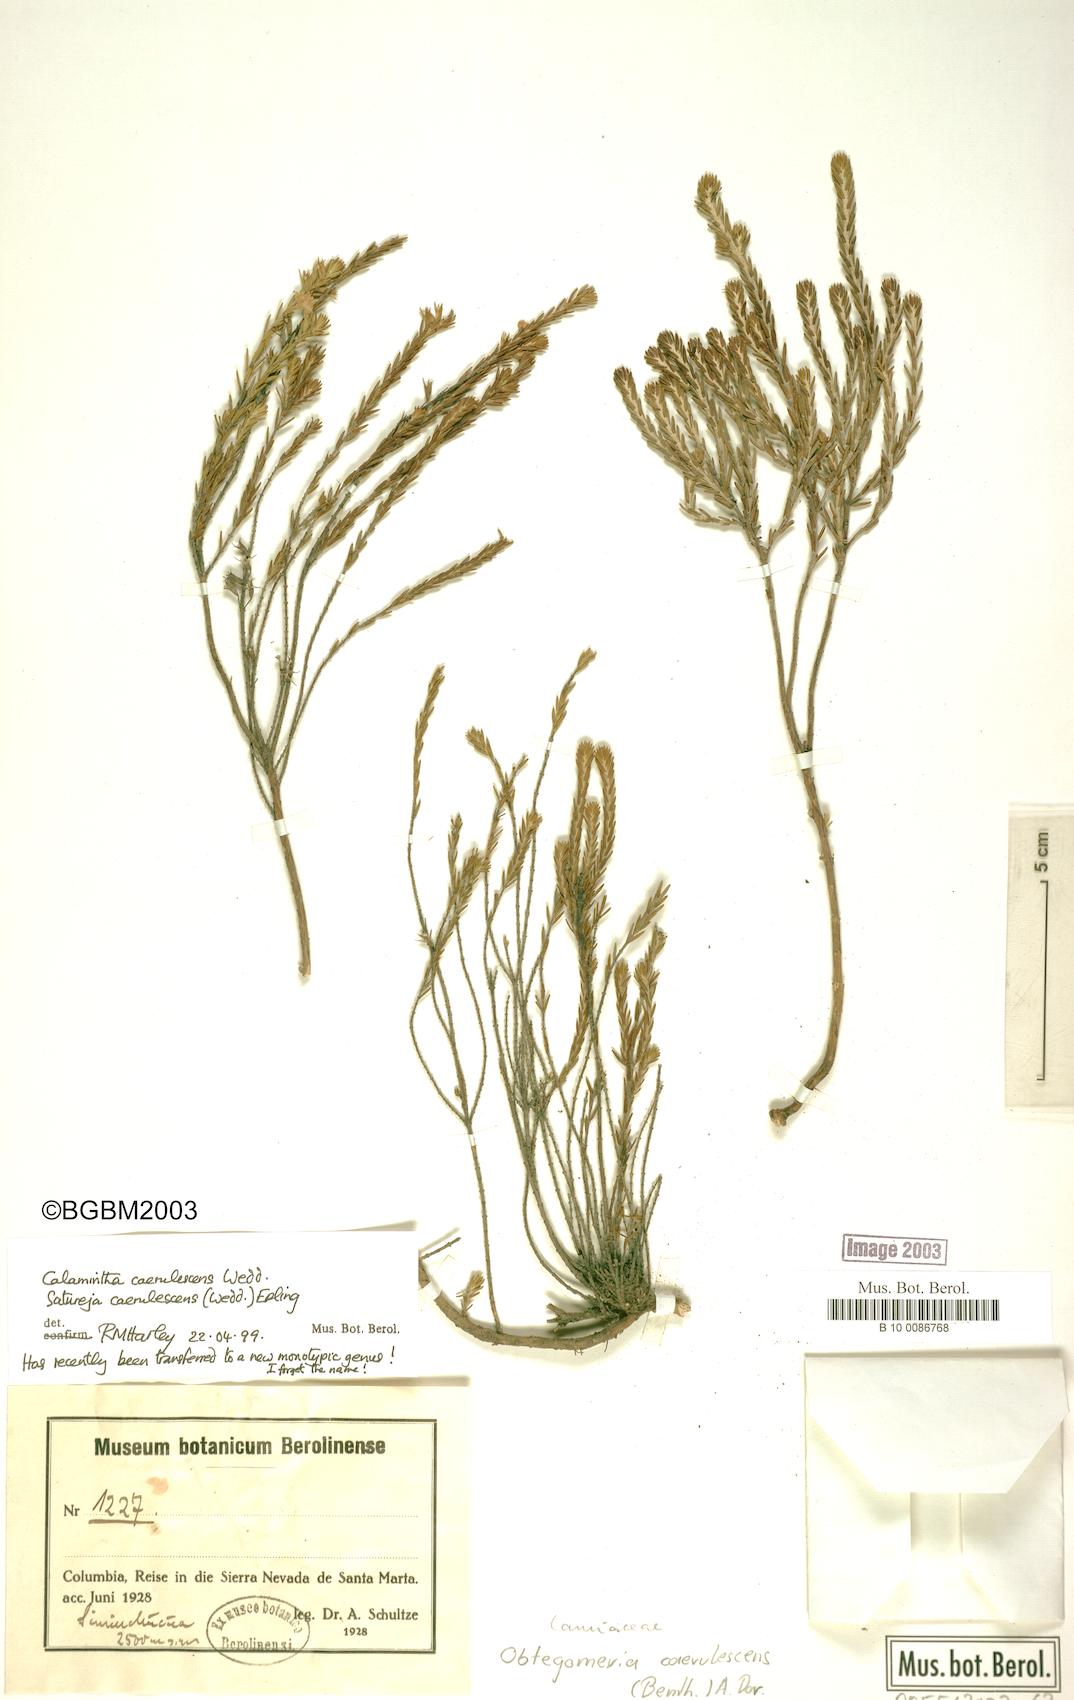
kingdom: Plantae
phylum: Tracheophyta
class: Magnoliopsida
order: Lamiales
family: Lamiaceae
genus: Obtegomeria
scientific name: Obtegomeria caerulescens
